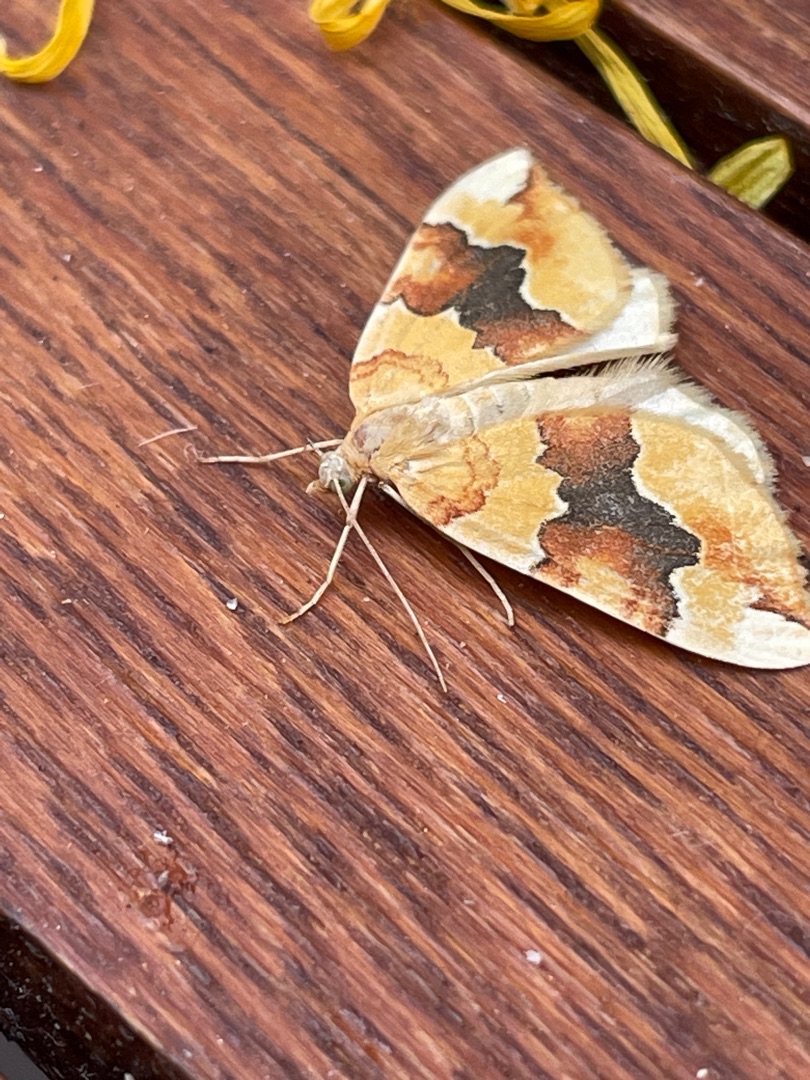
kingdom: Animalia
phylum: Arthropoda
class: Insecta
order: Lepidoptera
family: Geometridae
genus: Cidaria
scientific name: Cidaria fulvata
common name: Gul bladmåler
